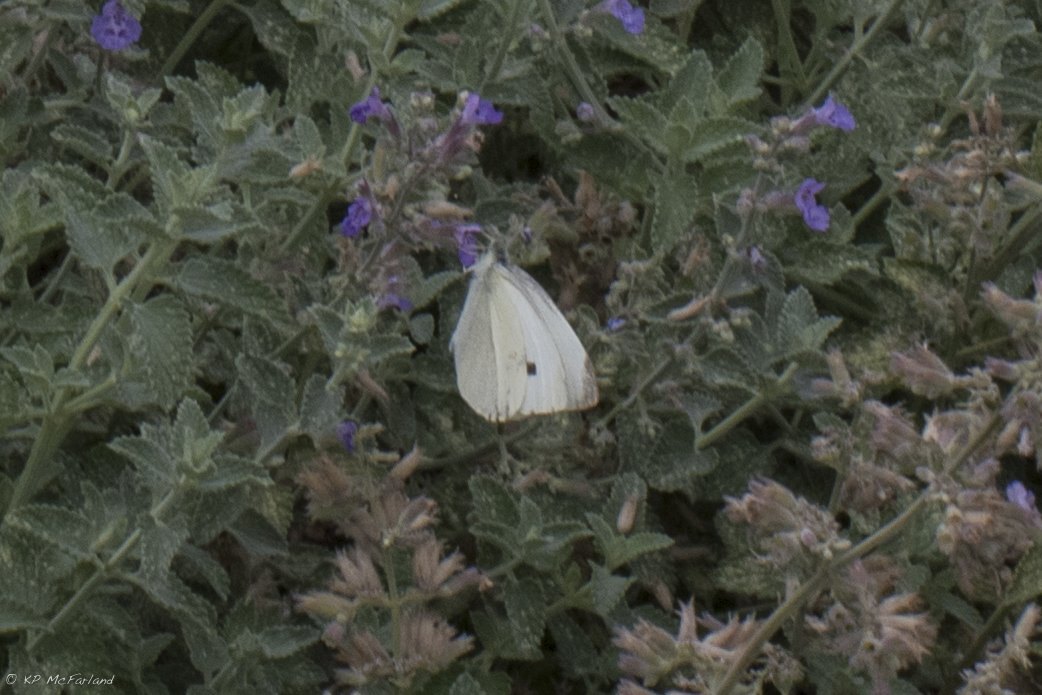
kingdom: Animalia
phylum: Arthropoda
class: Insecta
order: Lepidoptera
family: Pieridae
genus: Pieris
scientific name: Pieris rapae
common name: Cabbage White
